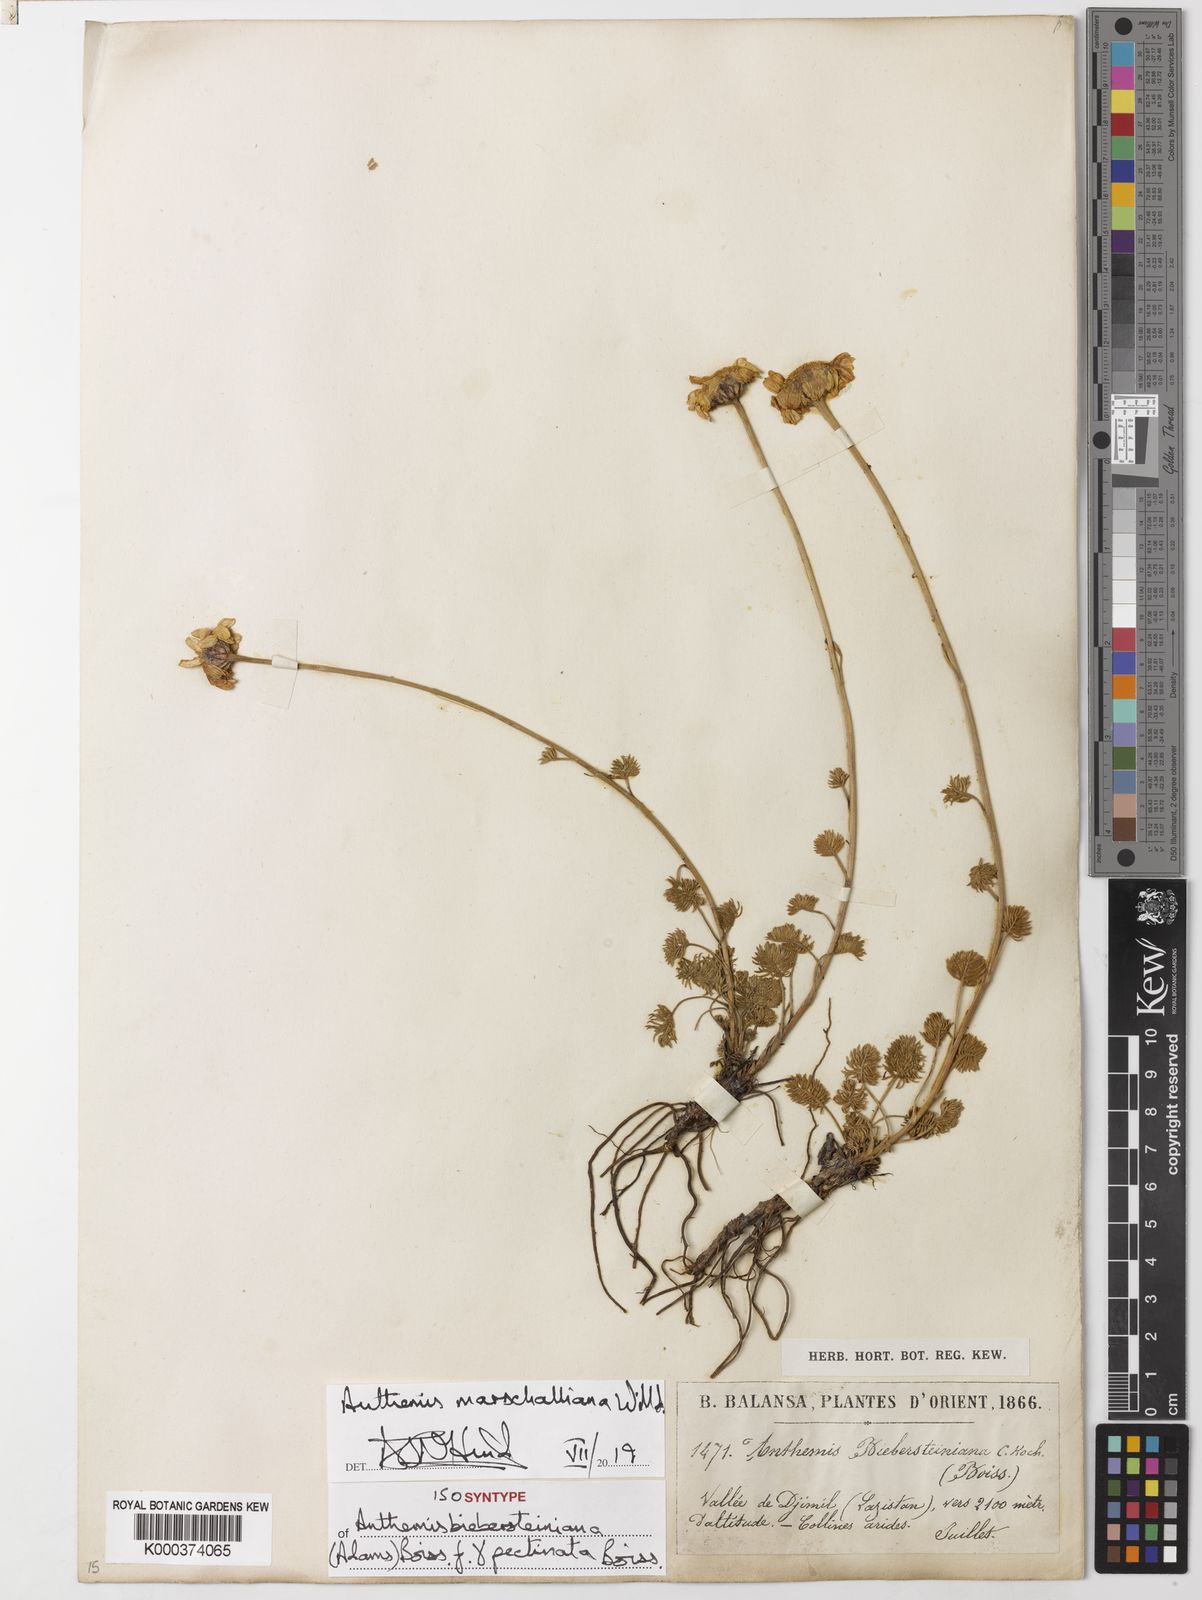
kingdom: Plantae
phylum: Tracheophyta
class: Magnoliopsida
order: Asterales
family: Asteraceae
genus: Archanthemis
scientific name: Archanthemis marschalliana
